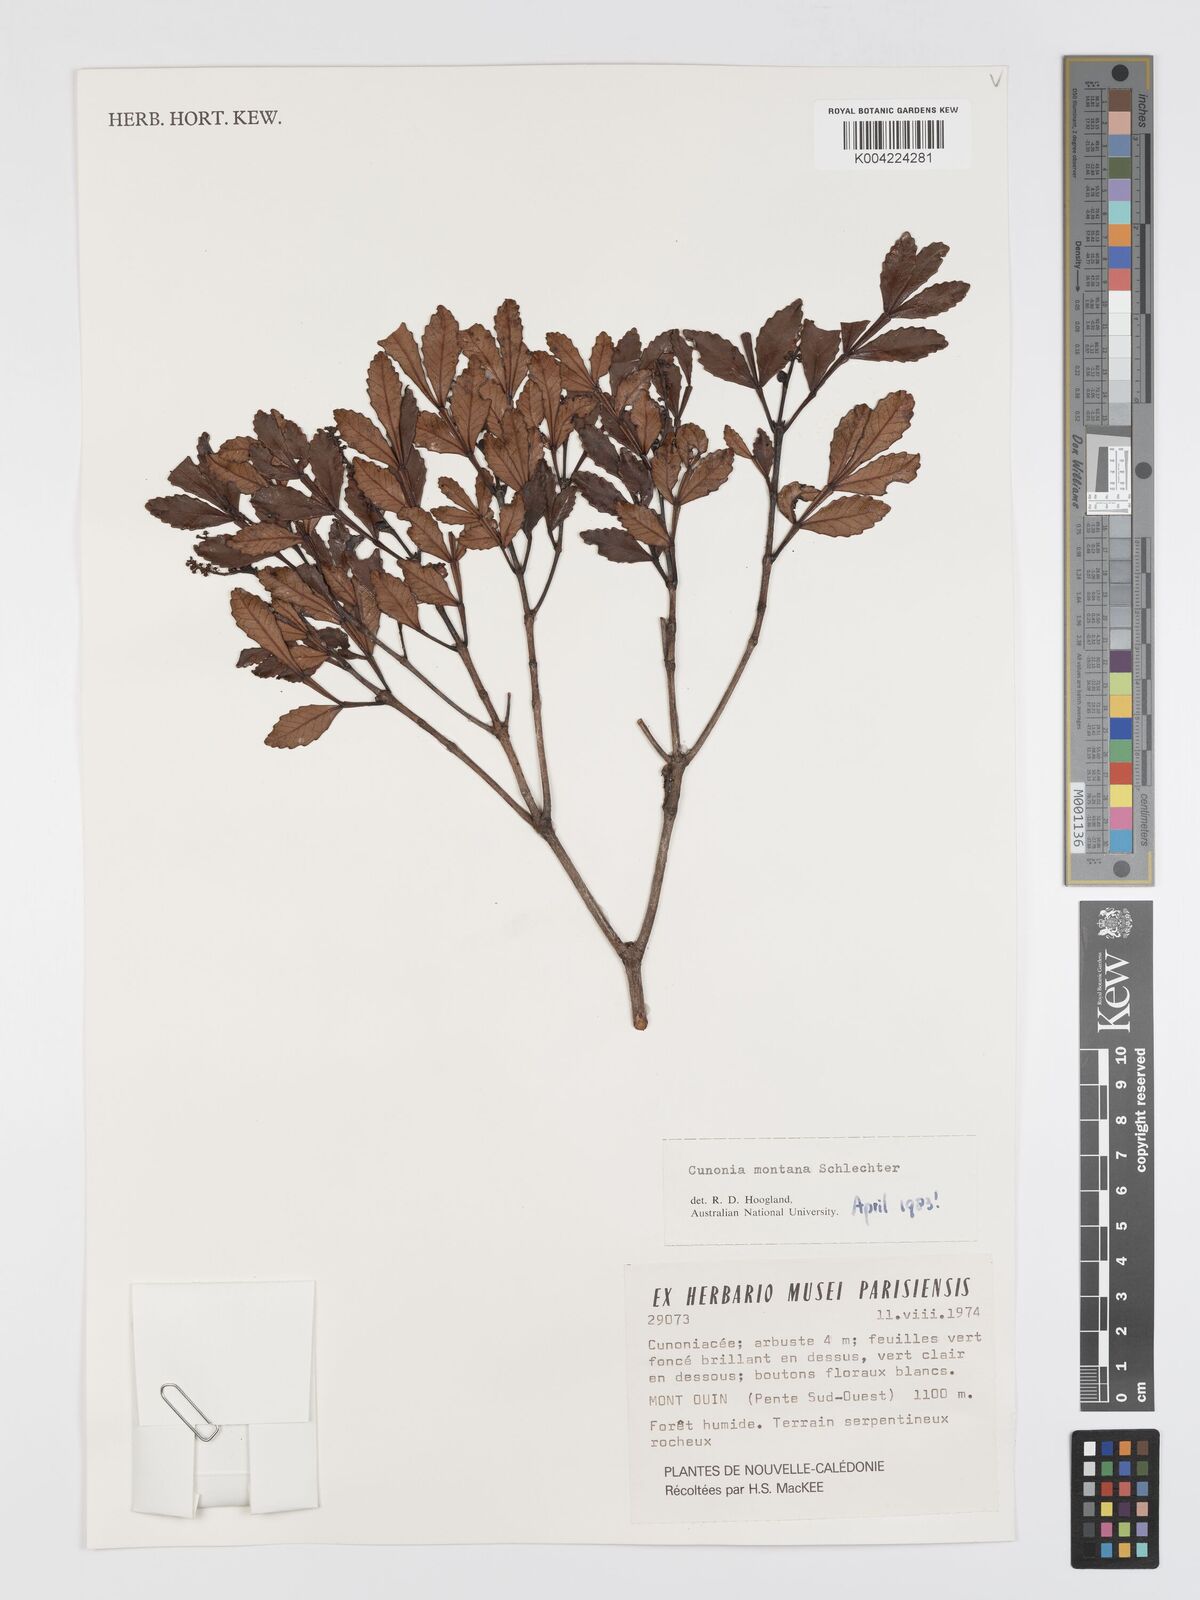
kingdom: Plantae
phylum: Tracheophyta
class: Magnoliopsida
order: Oxalidales
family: Cunoniaceae
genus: Cunonia
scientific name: Cunonia montana
